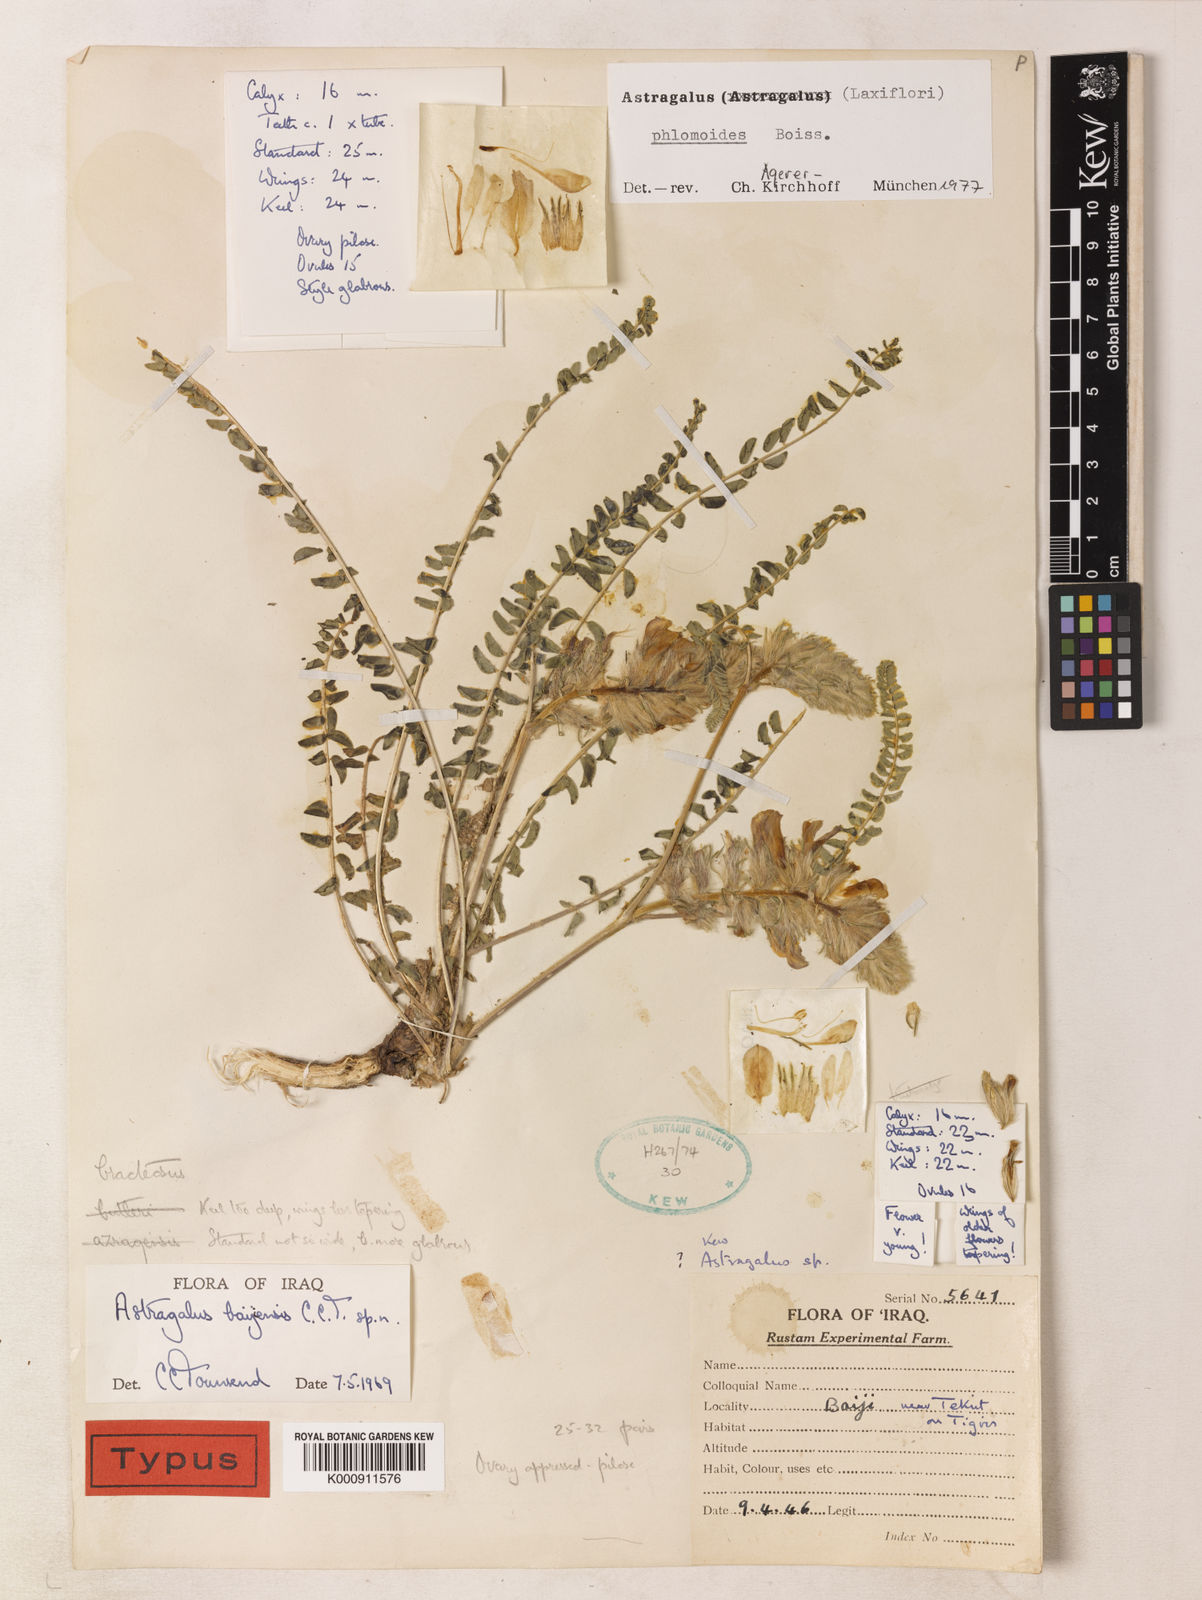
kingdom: Plantae
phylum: Tracheophyta
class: Magnoliopsida
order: Fabales
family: Fabaceae
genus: Astragalus
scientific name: Astragalus phlomoides
